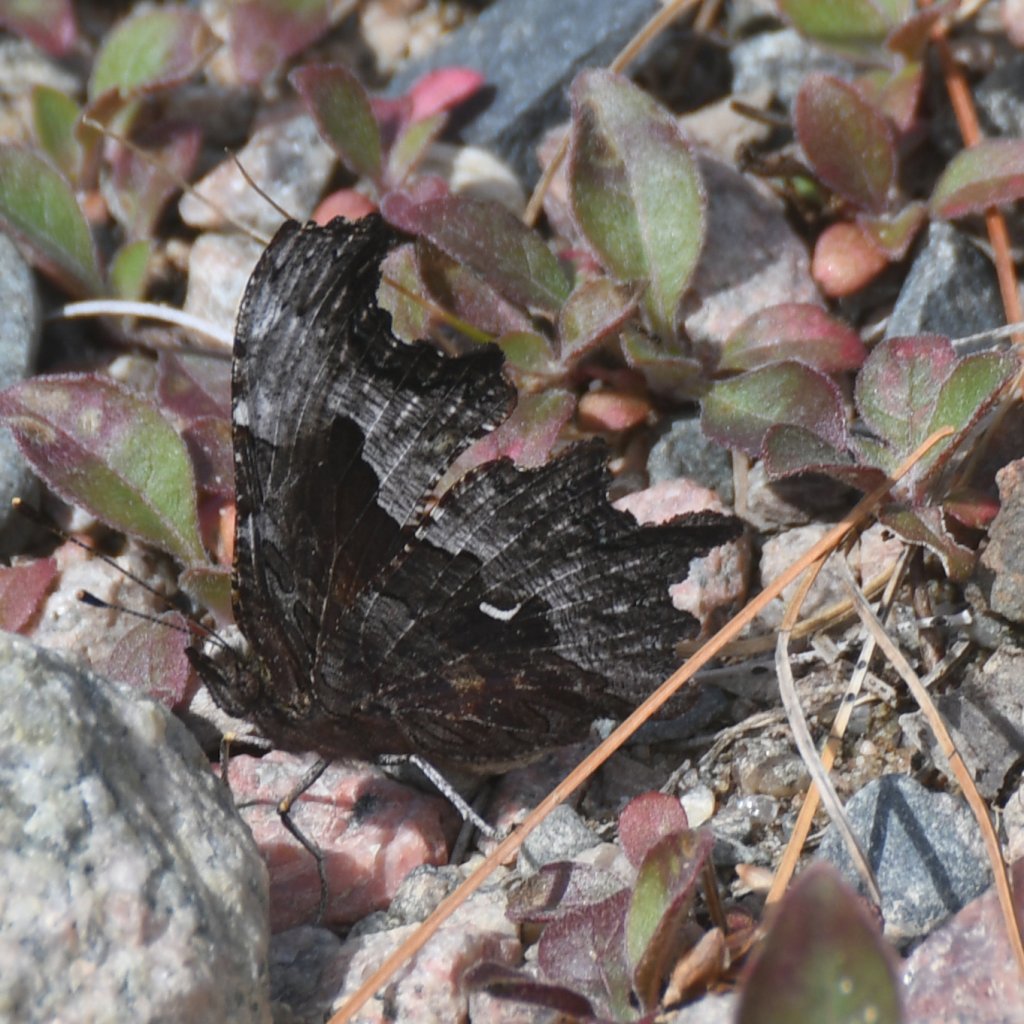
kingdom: Animalia
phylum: Arthropoda
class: Insecta
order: Lepidoptera
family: Nymphalidae
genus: Polygonia
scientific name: Polygonia gracilis
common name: Hoary Comma
